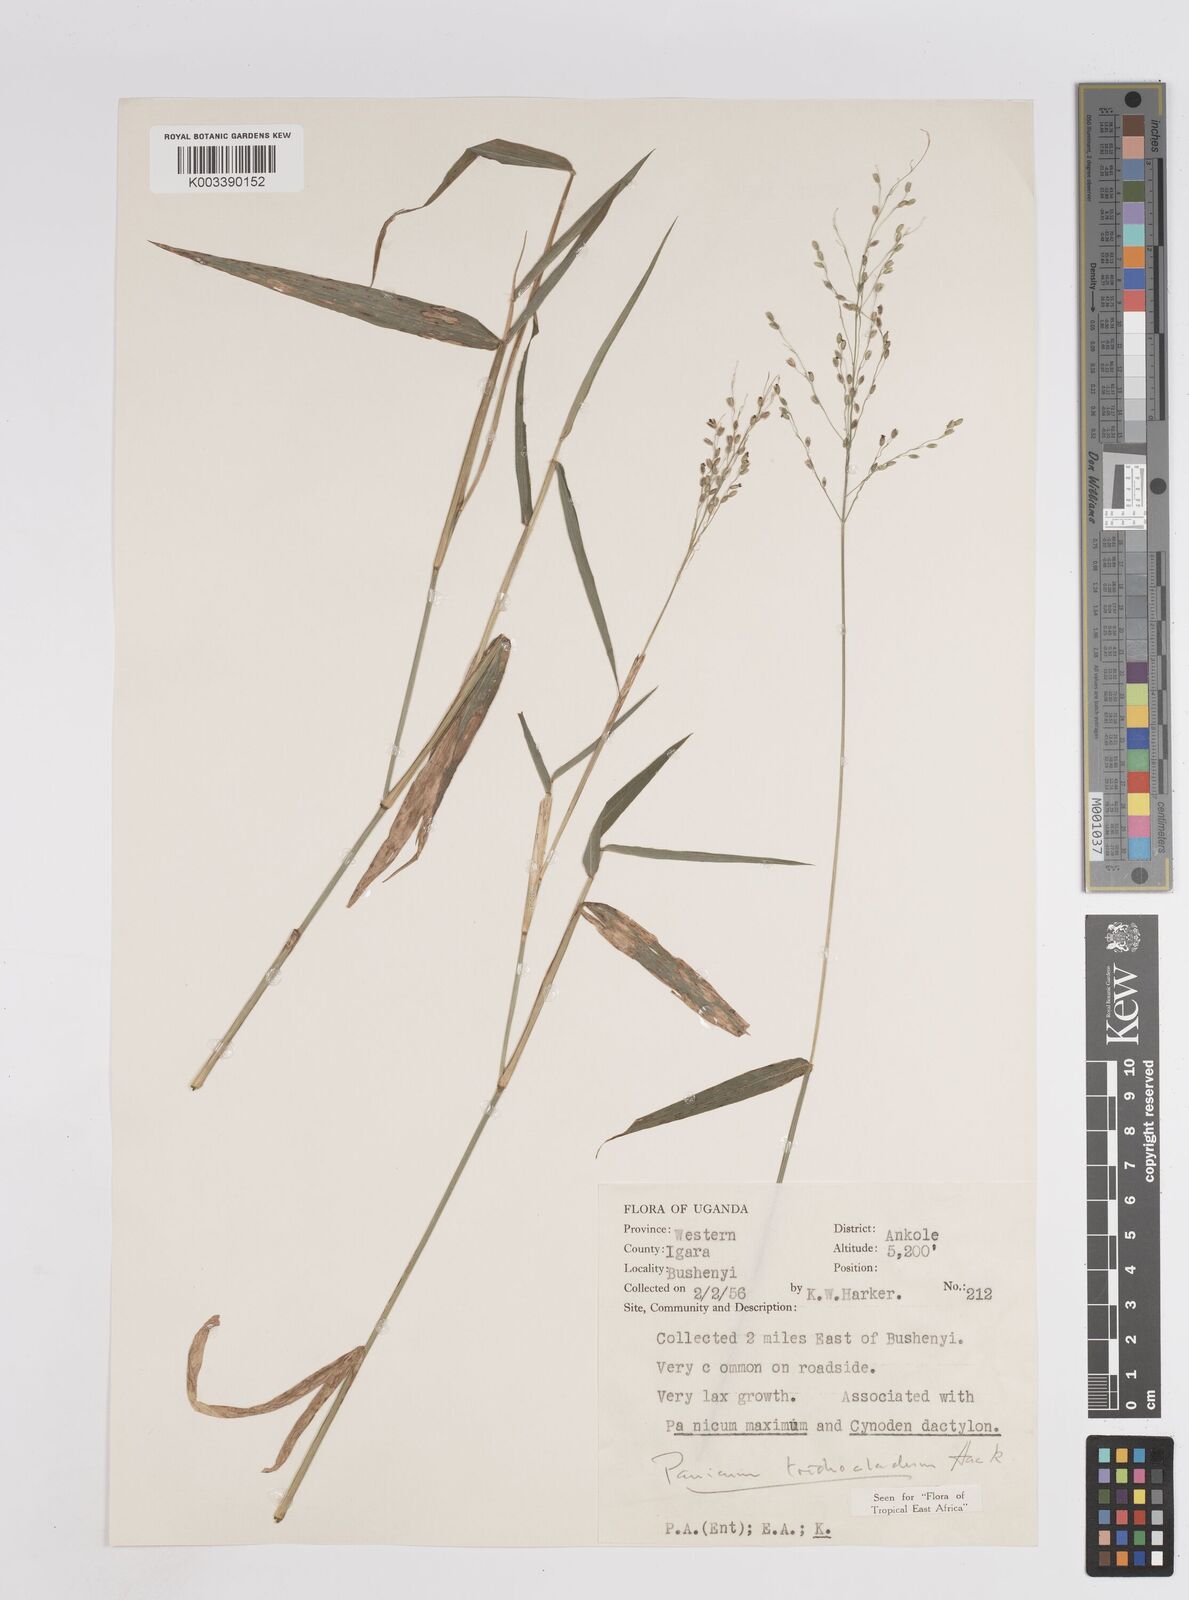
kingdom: Plantae
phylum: Tracheophyta
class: Liliopsida
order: Poales
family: Poaceae
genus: Megathyrsus
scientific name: Megathyrsus maximus
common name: Guineagrass
